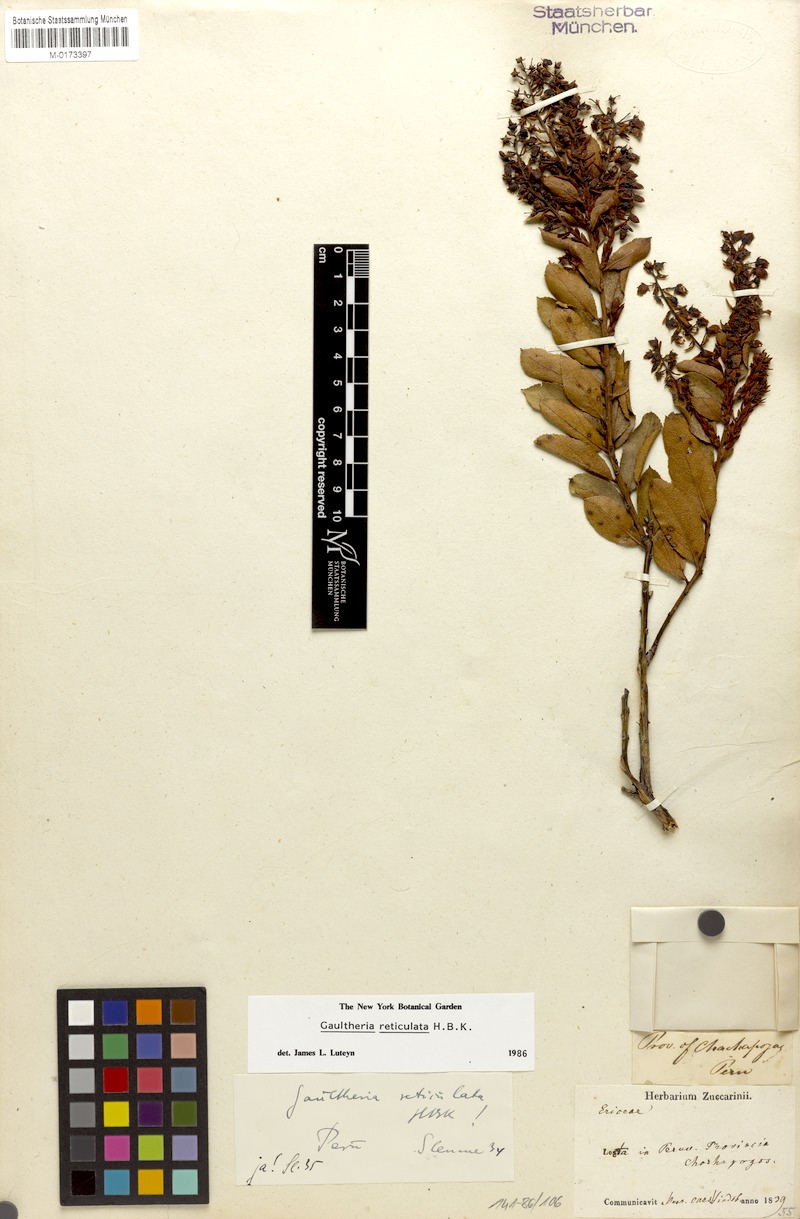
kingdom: Plantae
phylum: Tracheophyta
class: Magnoliopsida
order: Ericales
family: Ericaceae
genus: Gaultheria
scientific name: Gaultheria reticulata
